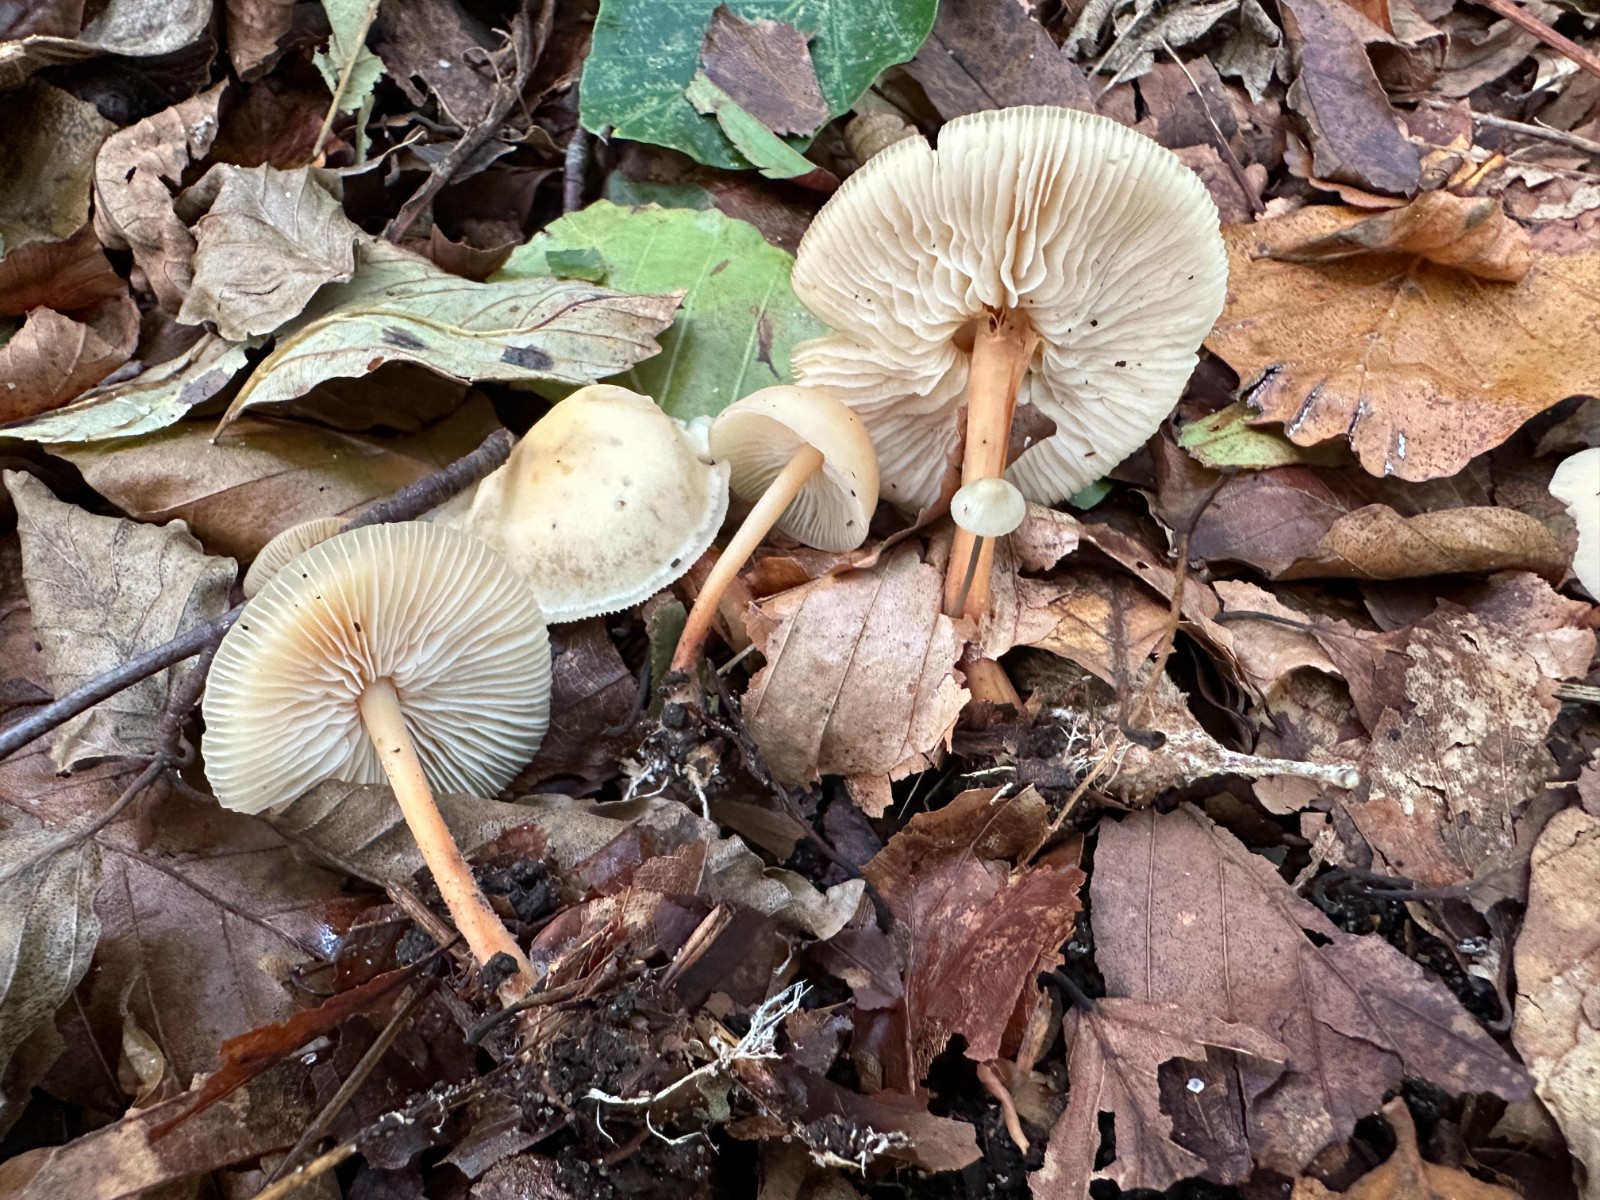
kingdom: Fungi
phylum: Basidiomycota
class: Agaricomycetes
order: Agaricales
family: Omphalotaceae
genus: Gymnopus
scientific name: Gymnopus dryophilus
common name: løv-fladhat
